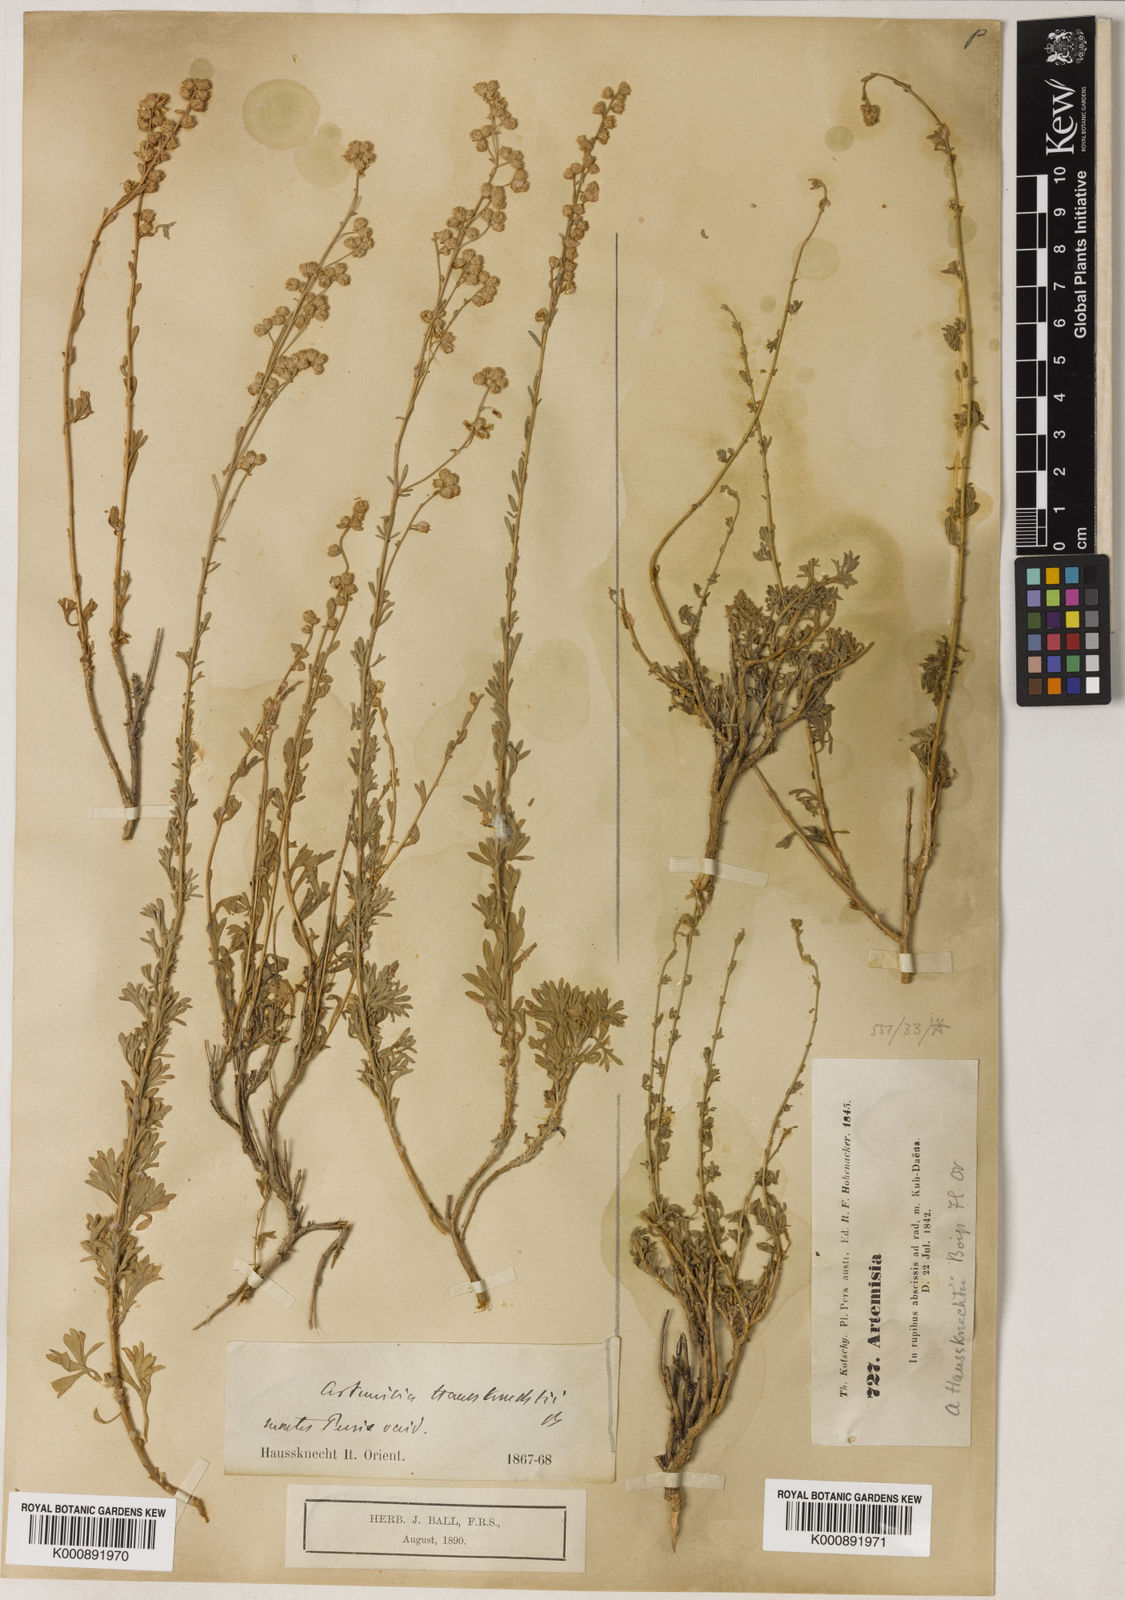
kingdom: Plantae
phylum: Tracheophyta
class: Magnoliopsida
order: Asterales
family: Asteraceae
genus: Artemisia
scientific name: Artemisia haussknechtii
